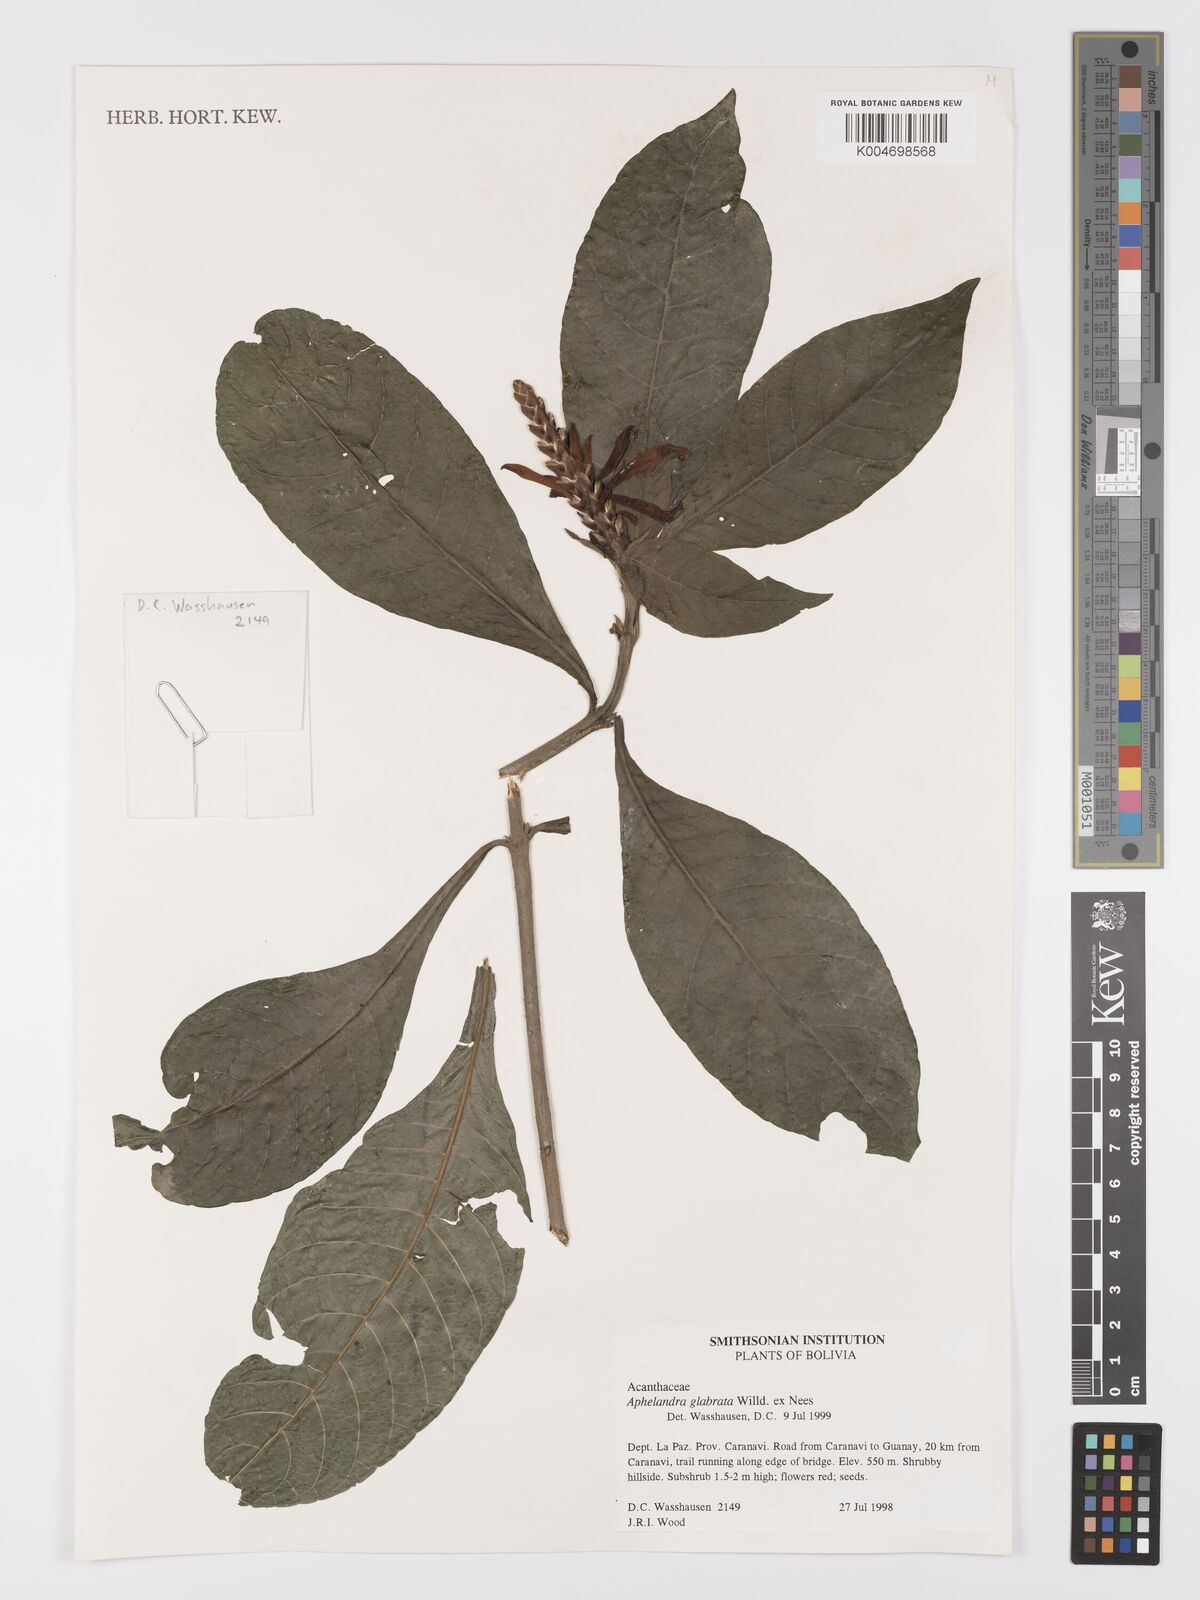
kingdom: Plantae
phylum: Tracheophyta
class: Magnoliopsida
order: Lamiales
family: Acanthaceae
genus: Aphelandra
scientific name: Aphelandra glabrata
